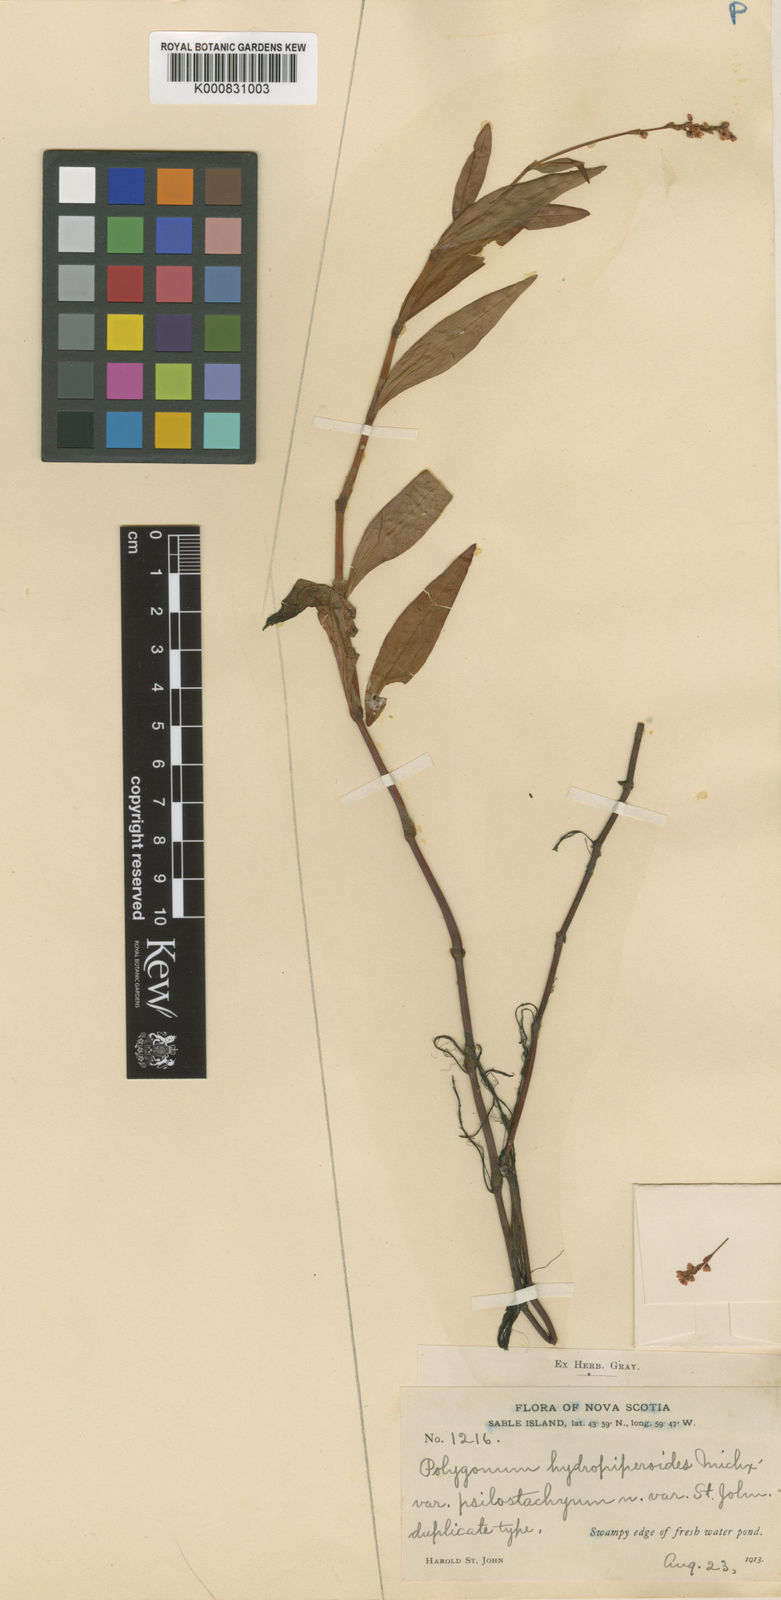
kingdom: Plantae
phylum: Tracheophyta
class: Magnoliopsida
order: Caryophyllales
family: Polygonaceae
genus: Persicaria
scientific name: Persicaria hydropiperoides
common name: Swamp smartweed
